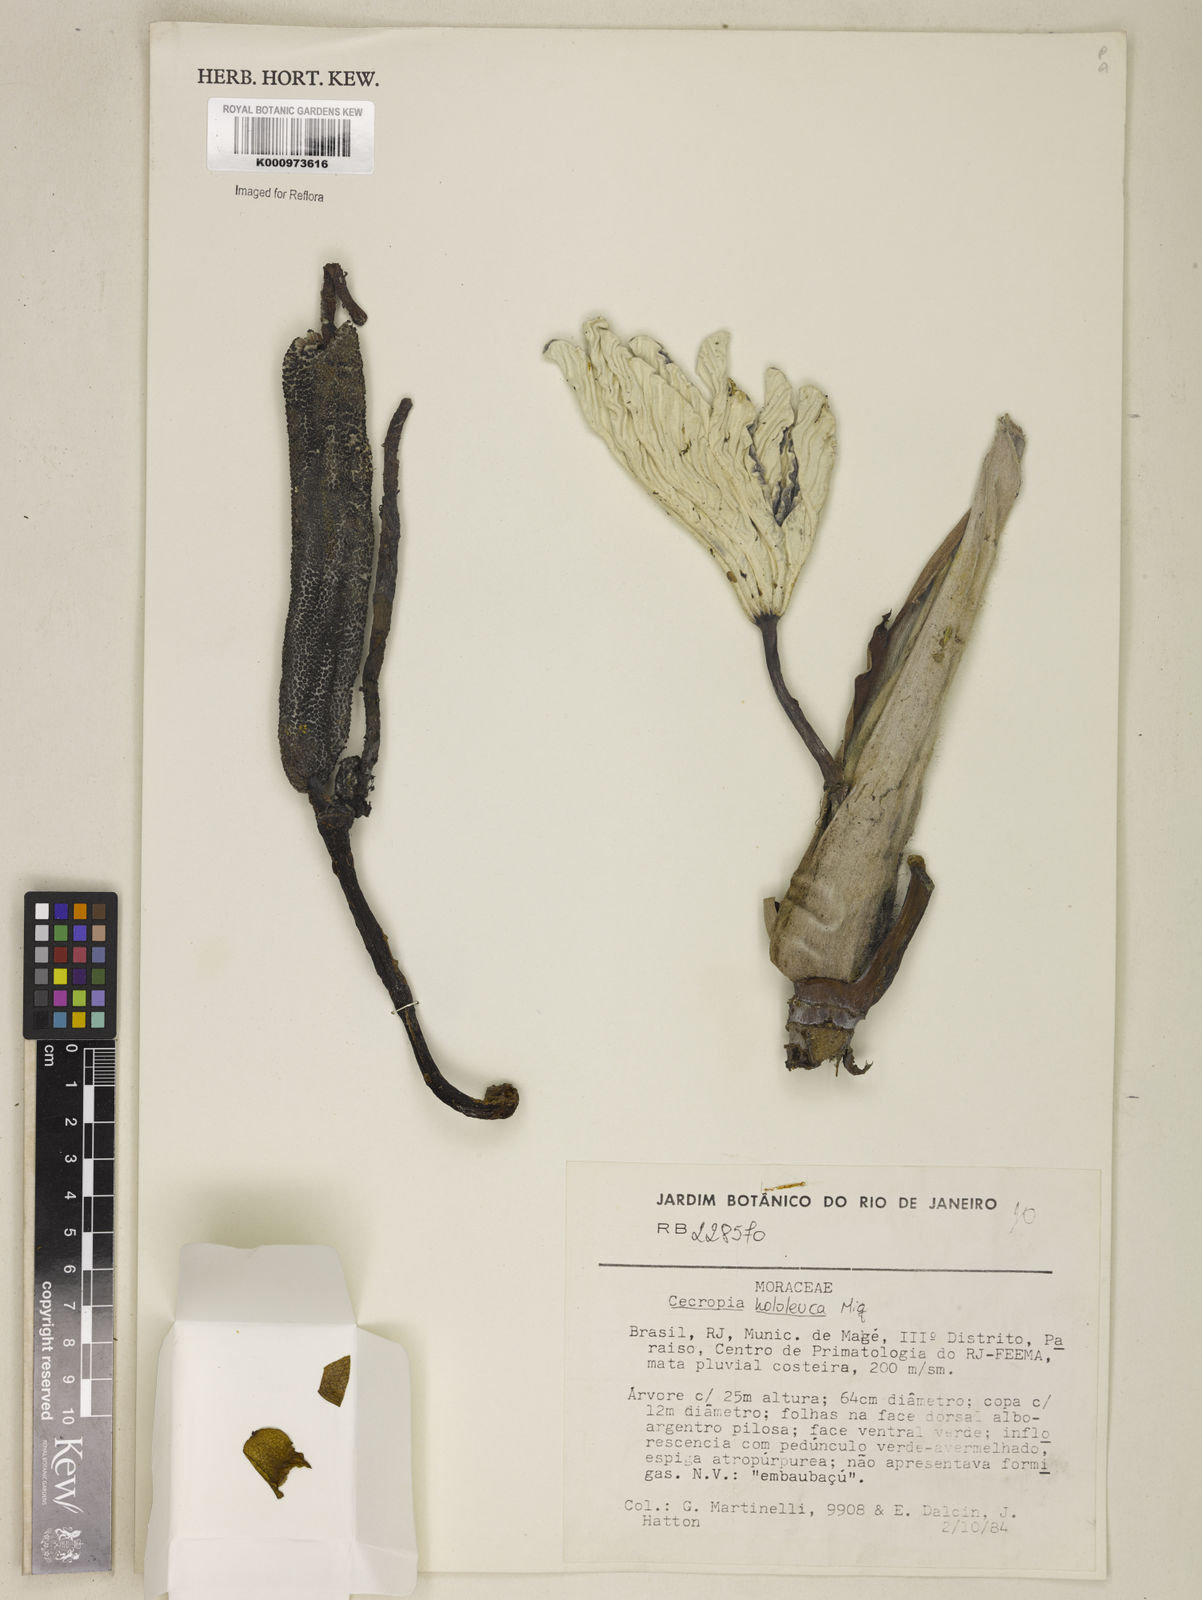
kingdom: Plantae
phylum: Tracheophyta
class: Magnoliopsida
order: Rosales
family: Urticaceae
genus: Cecropia
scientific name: Cecropia hololeuca
